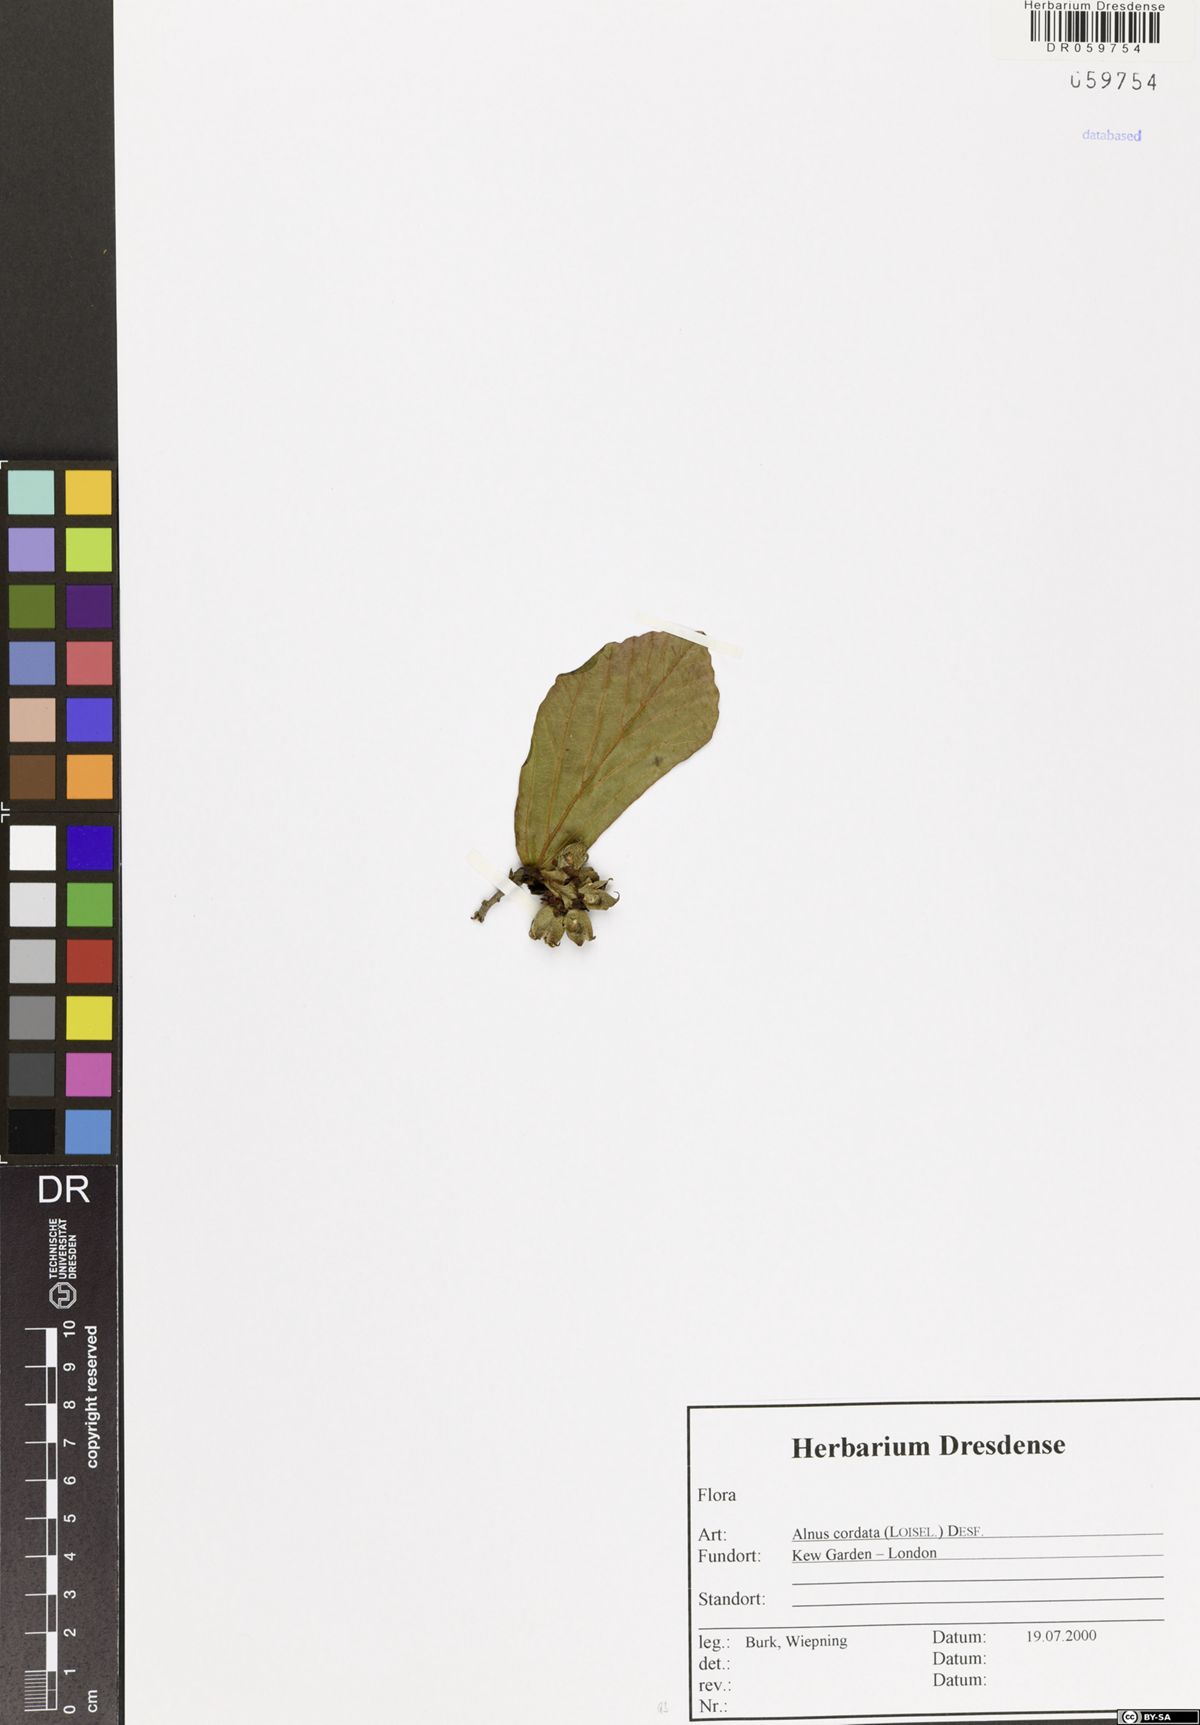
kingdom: Plantae
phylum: Tracheophyta
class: Magnoliopsida
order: Fagales
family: Betulaceae
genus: Alnus
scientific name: Alnus cordata
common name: Italian alder
